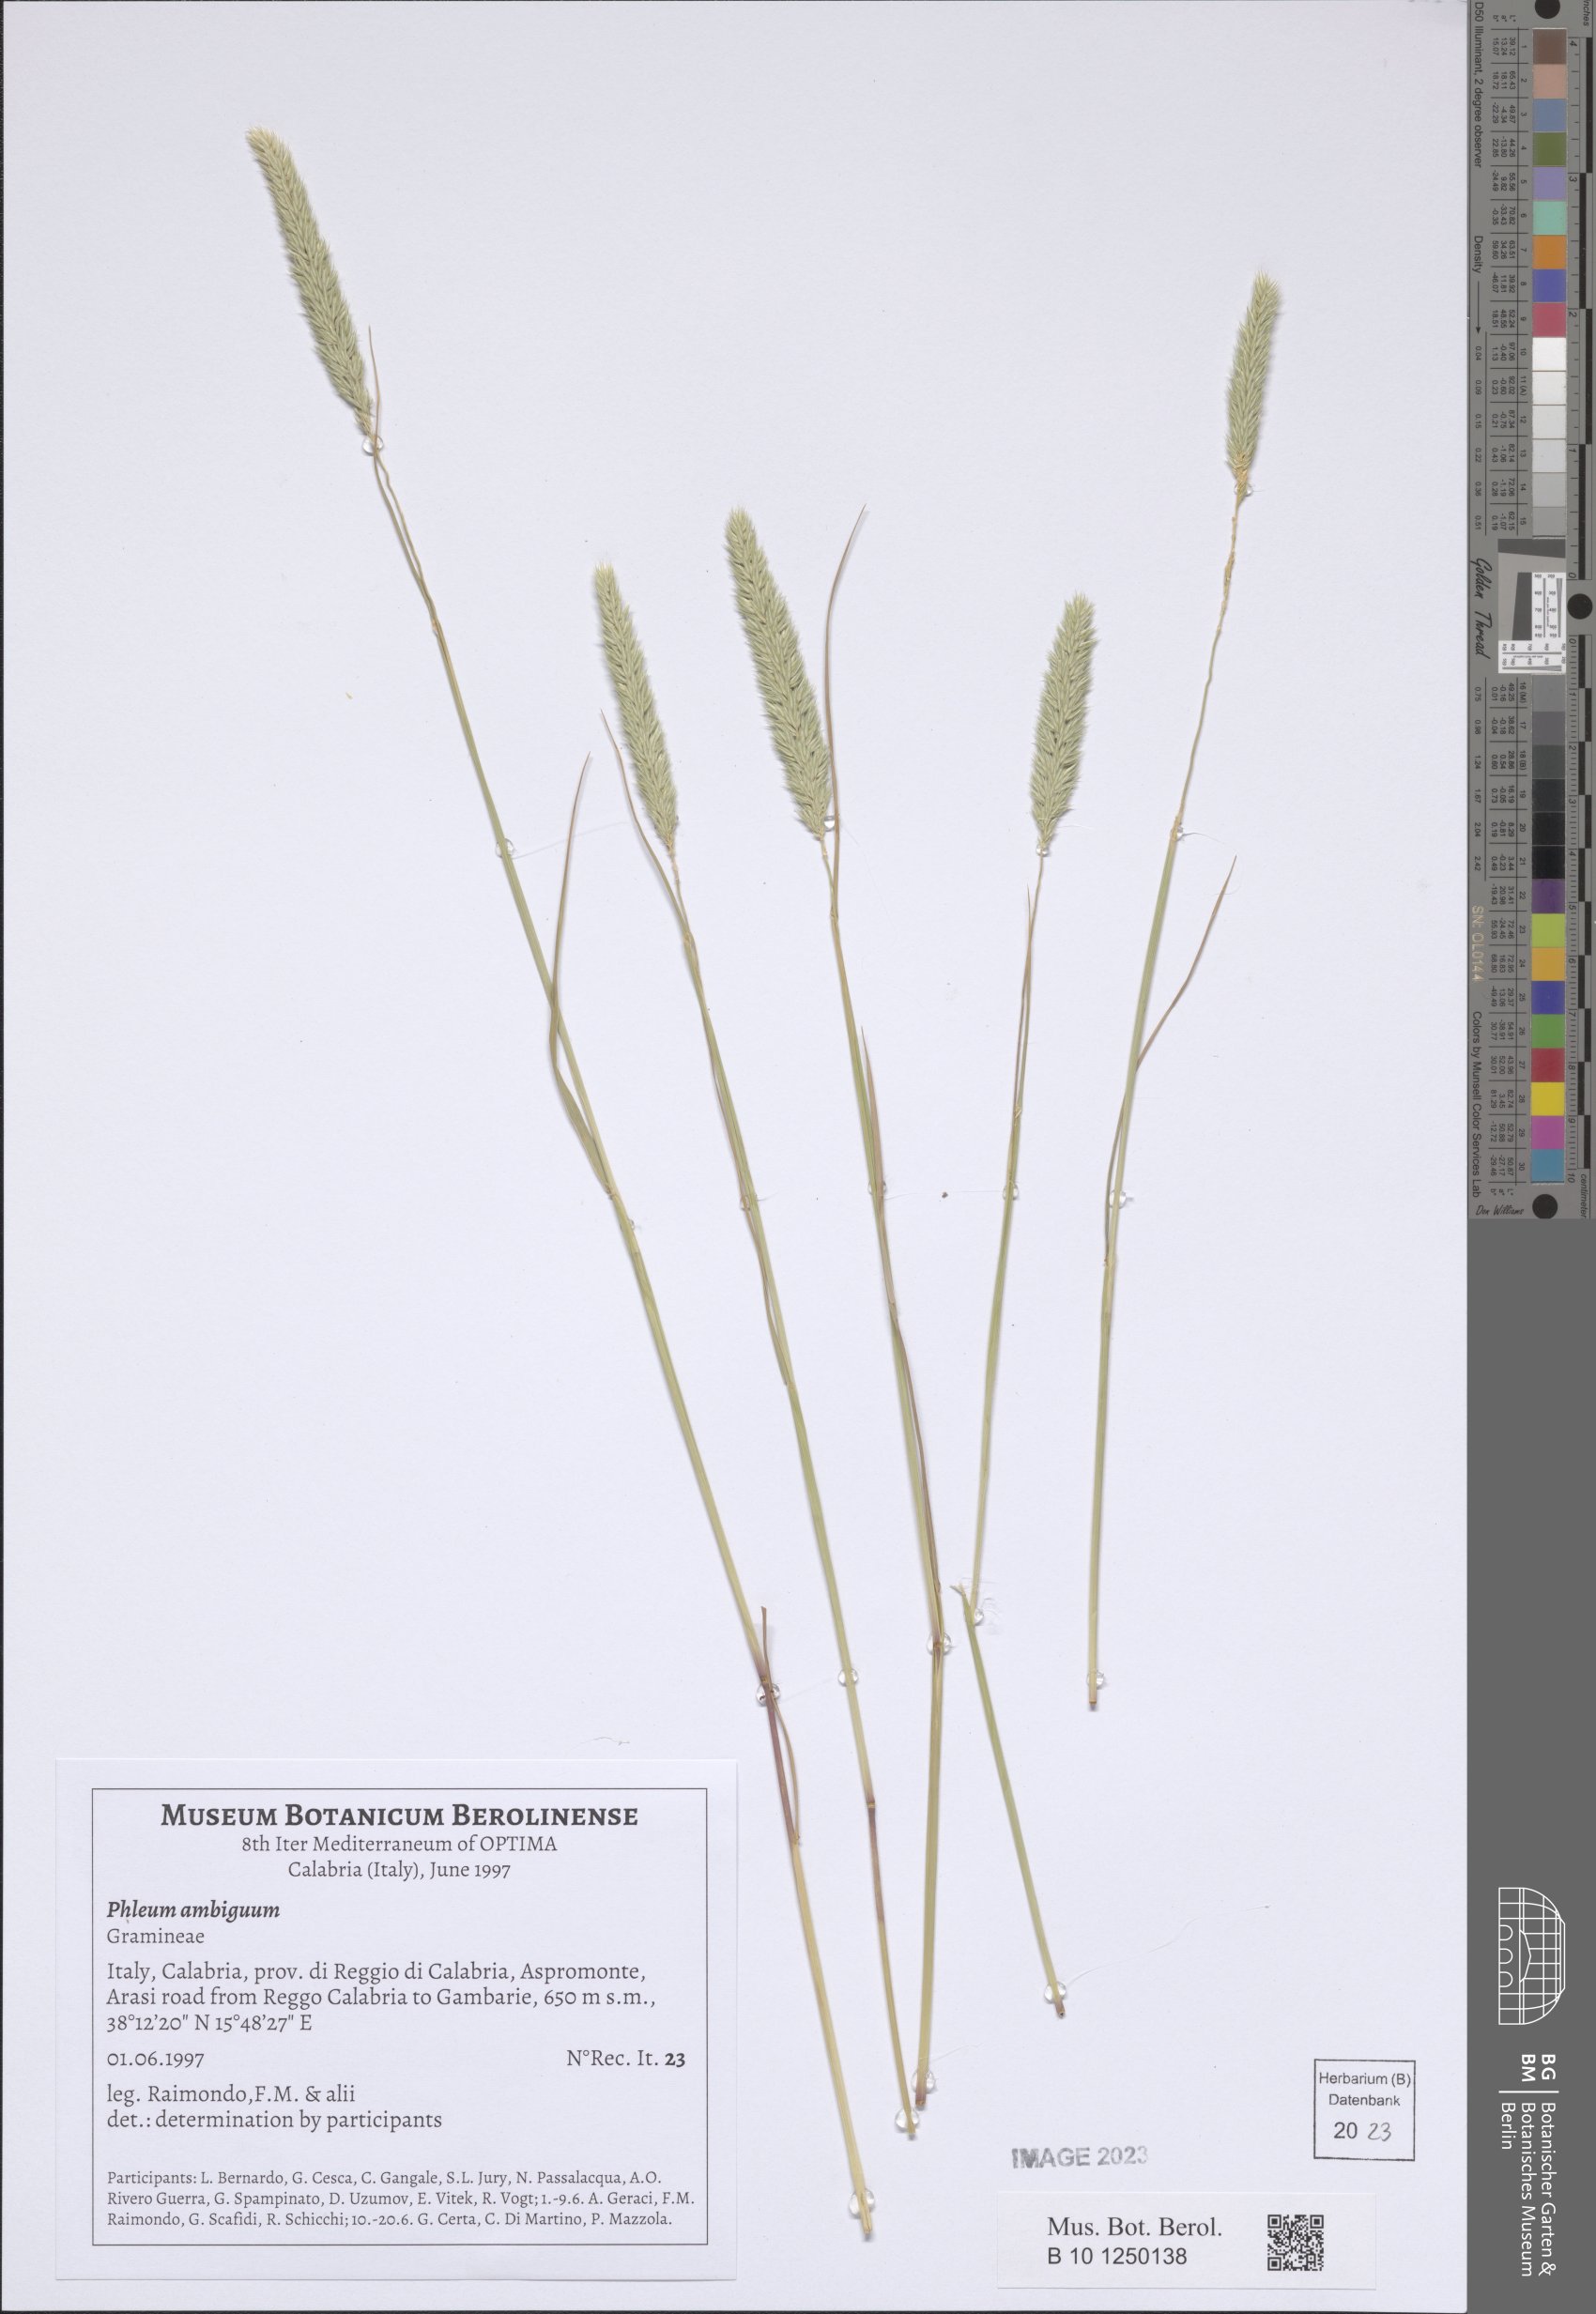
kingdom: Plantae
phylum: Tracheophyta
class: Liliopsida
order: Poales
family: Poaceae
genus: Phleum
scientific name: Phleum hirsutum
